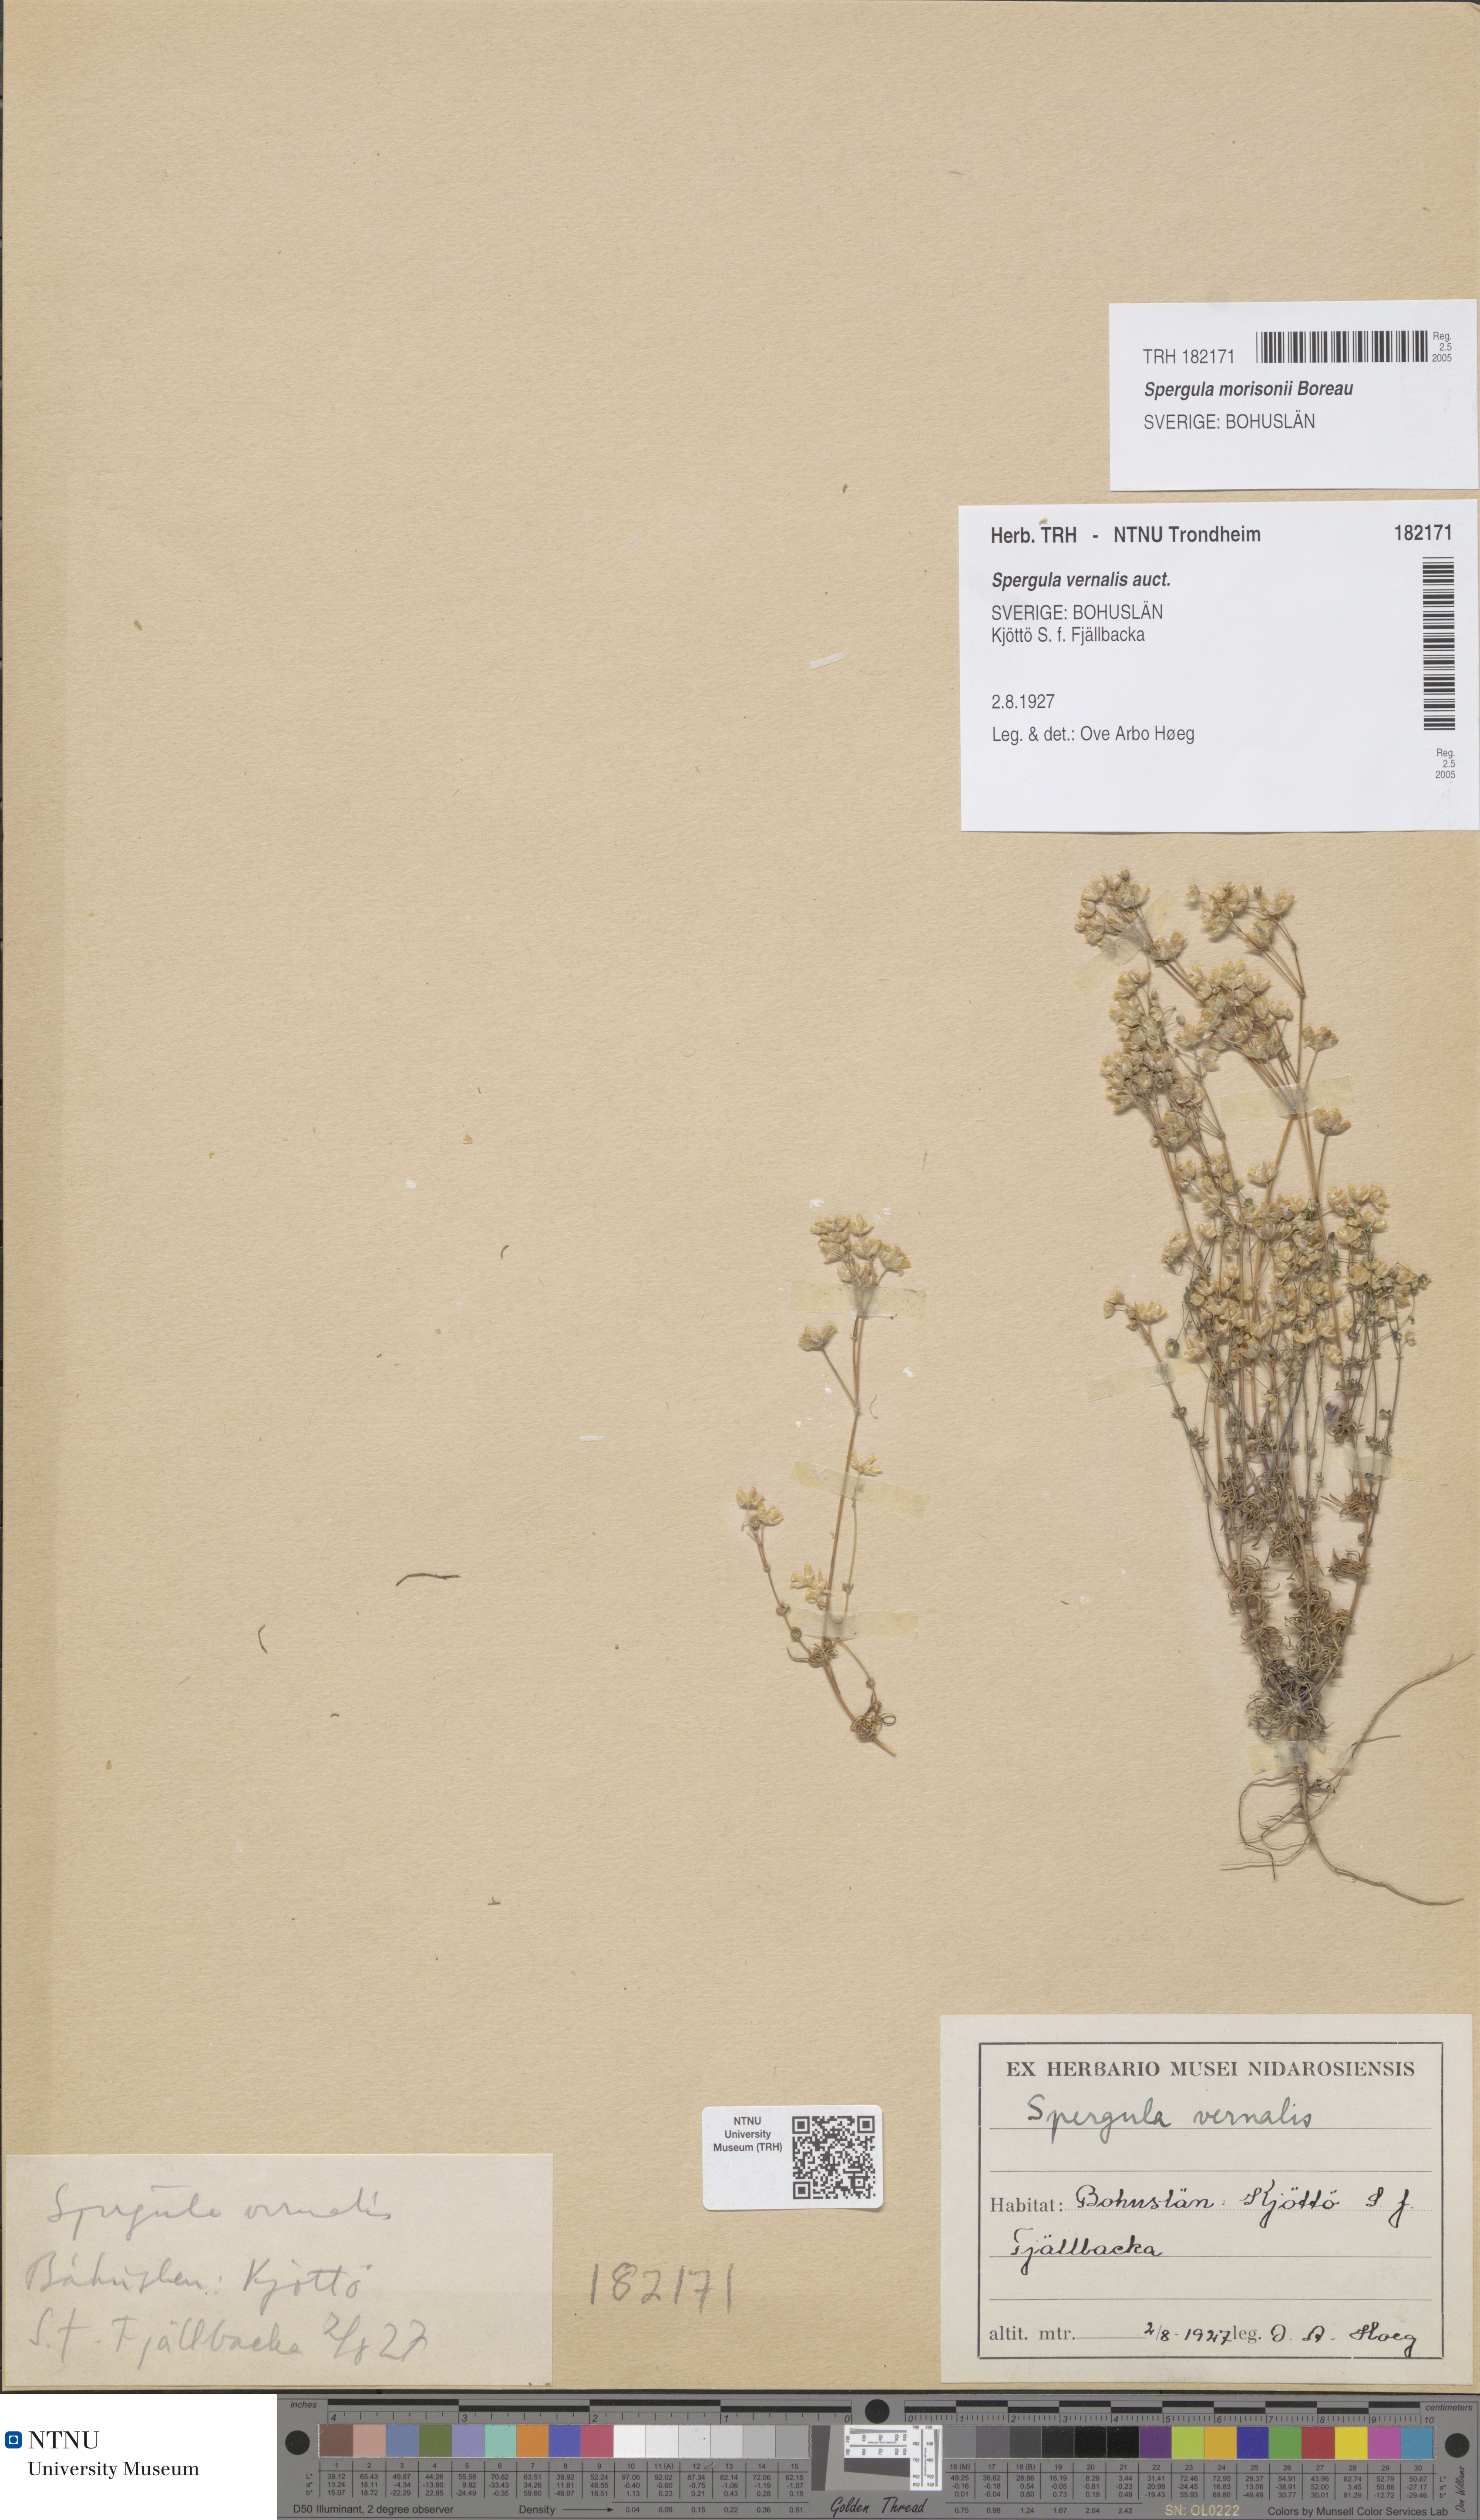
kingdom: Plantae
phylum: Tracheophyta
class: Magnoliopsida
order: Caryophyllales
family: Caryophyllaceae
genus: Spergula
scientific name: Spergula morisonii
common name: Pearlwort spurrey
